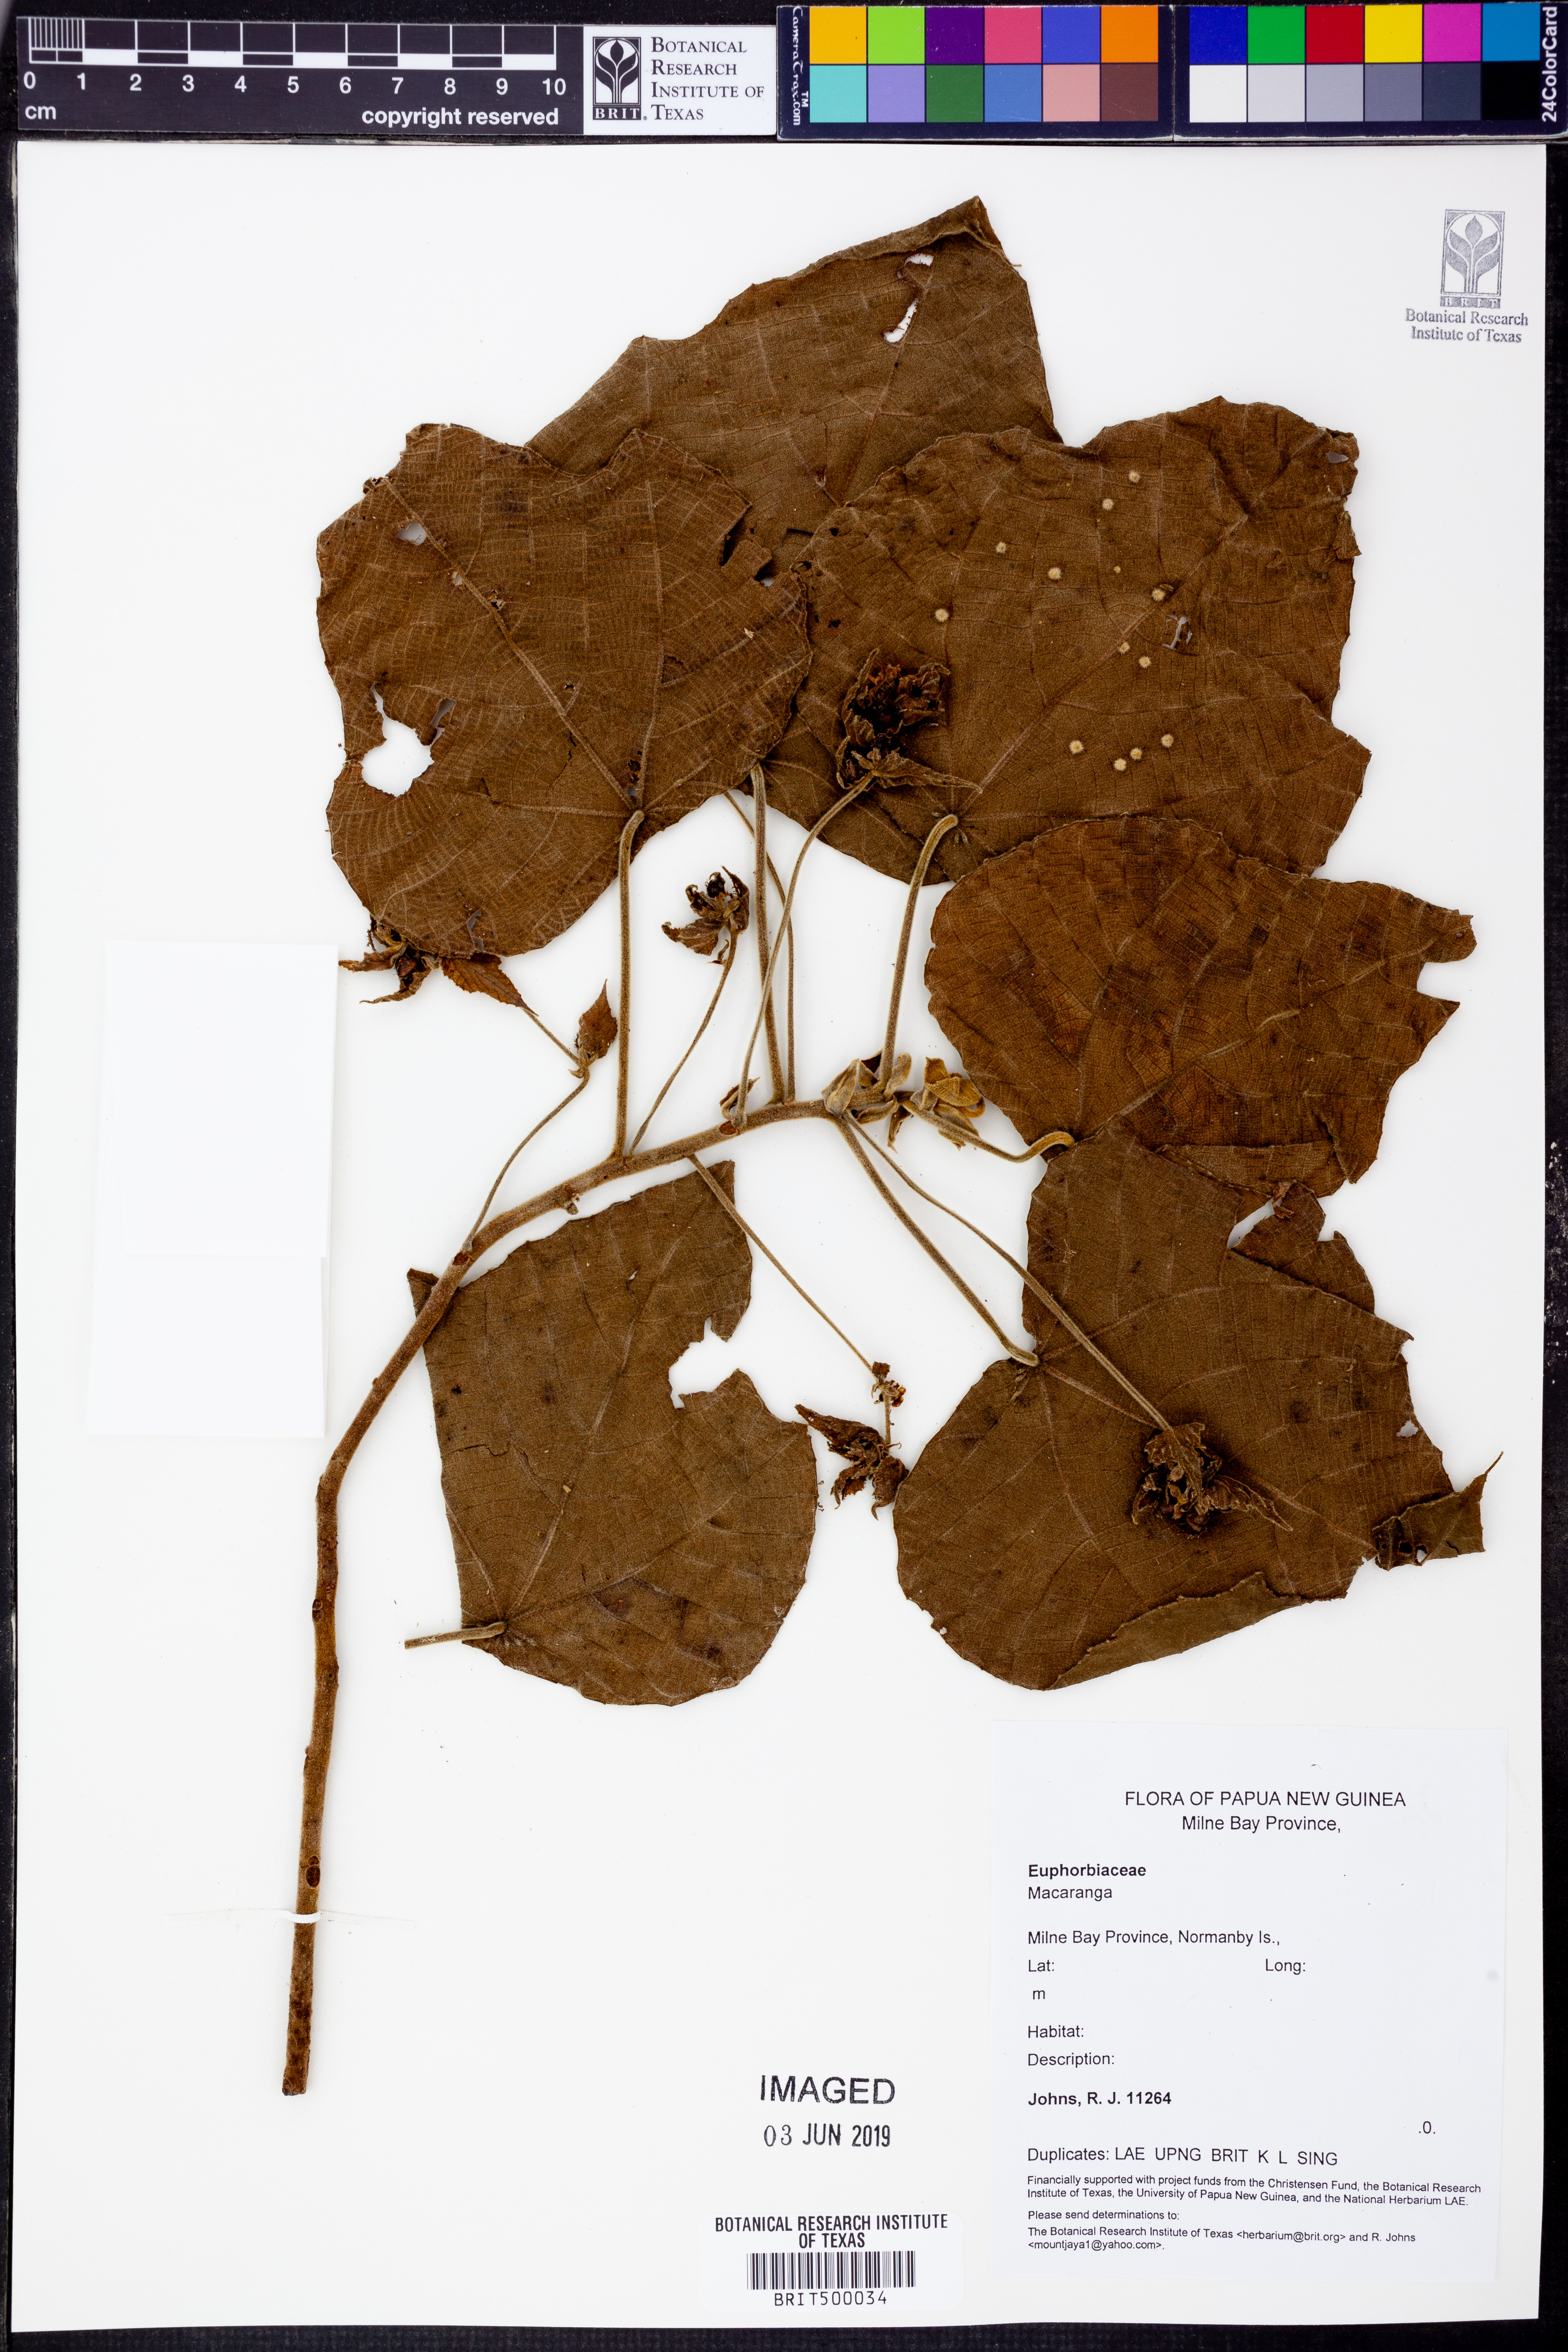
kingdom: Plantae
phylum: Tracheophyta
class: Magnoliopsida
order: Malpighiales
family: Euphorbiaceae
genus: Macaranga
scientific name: Macaranga
